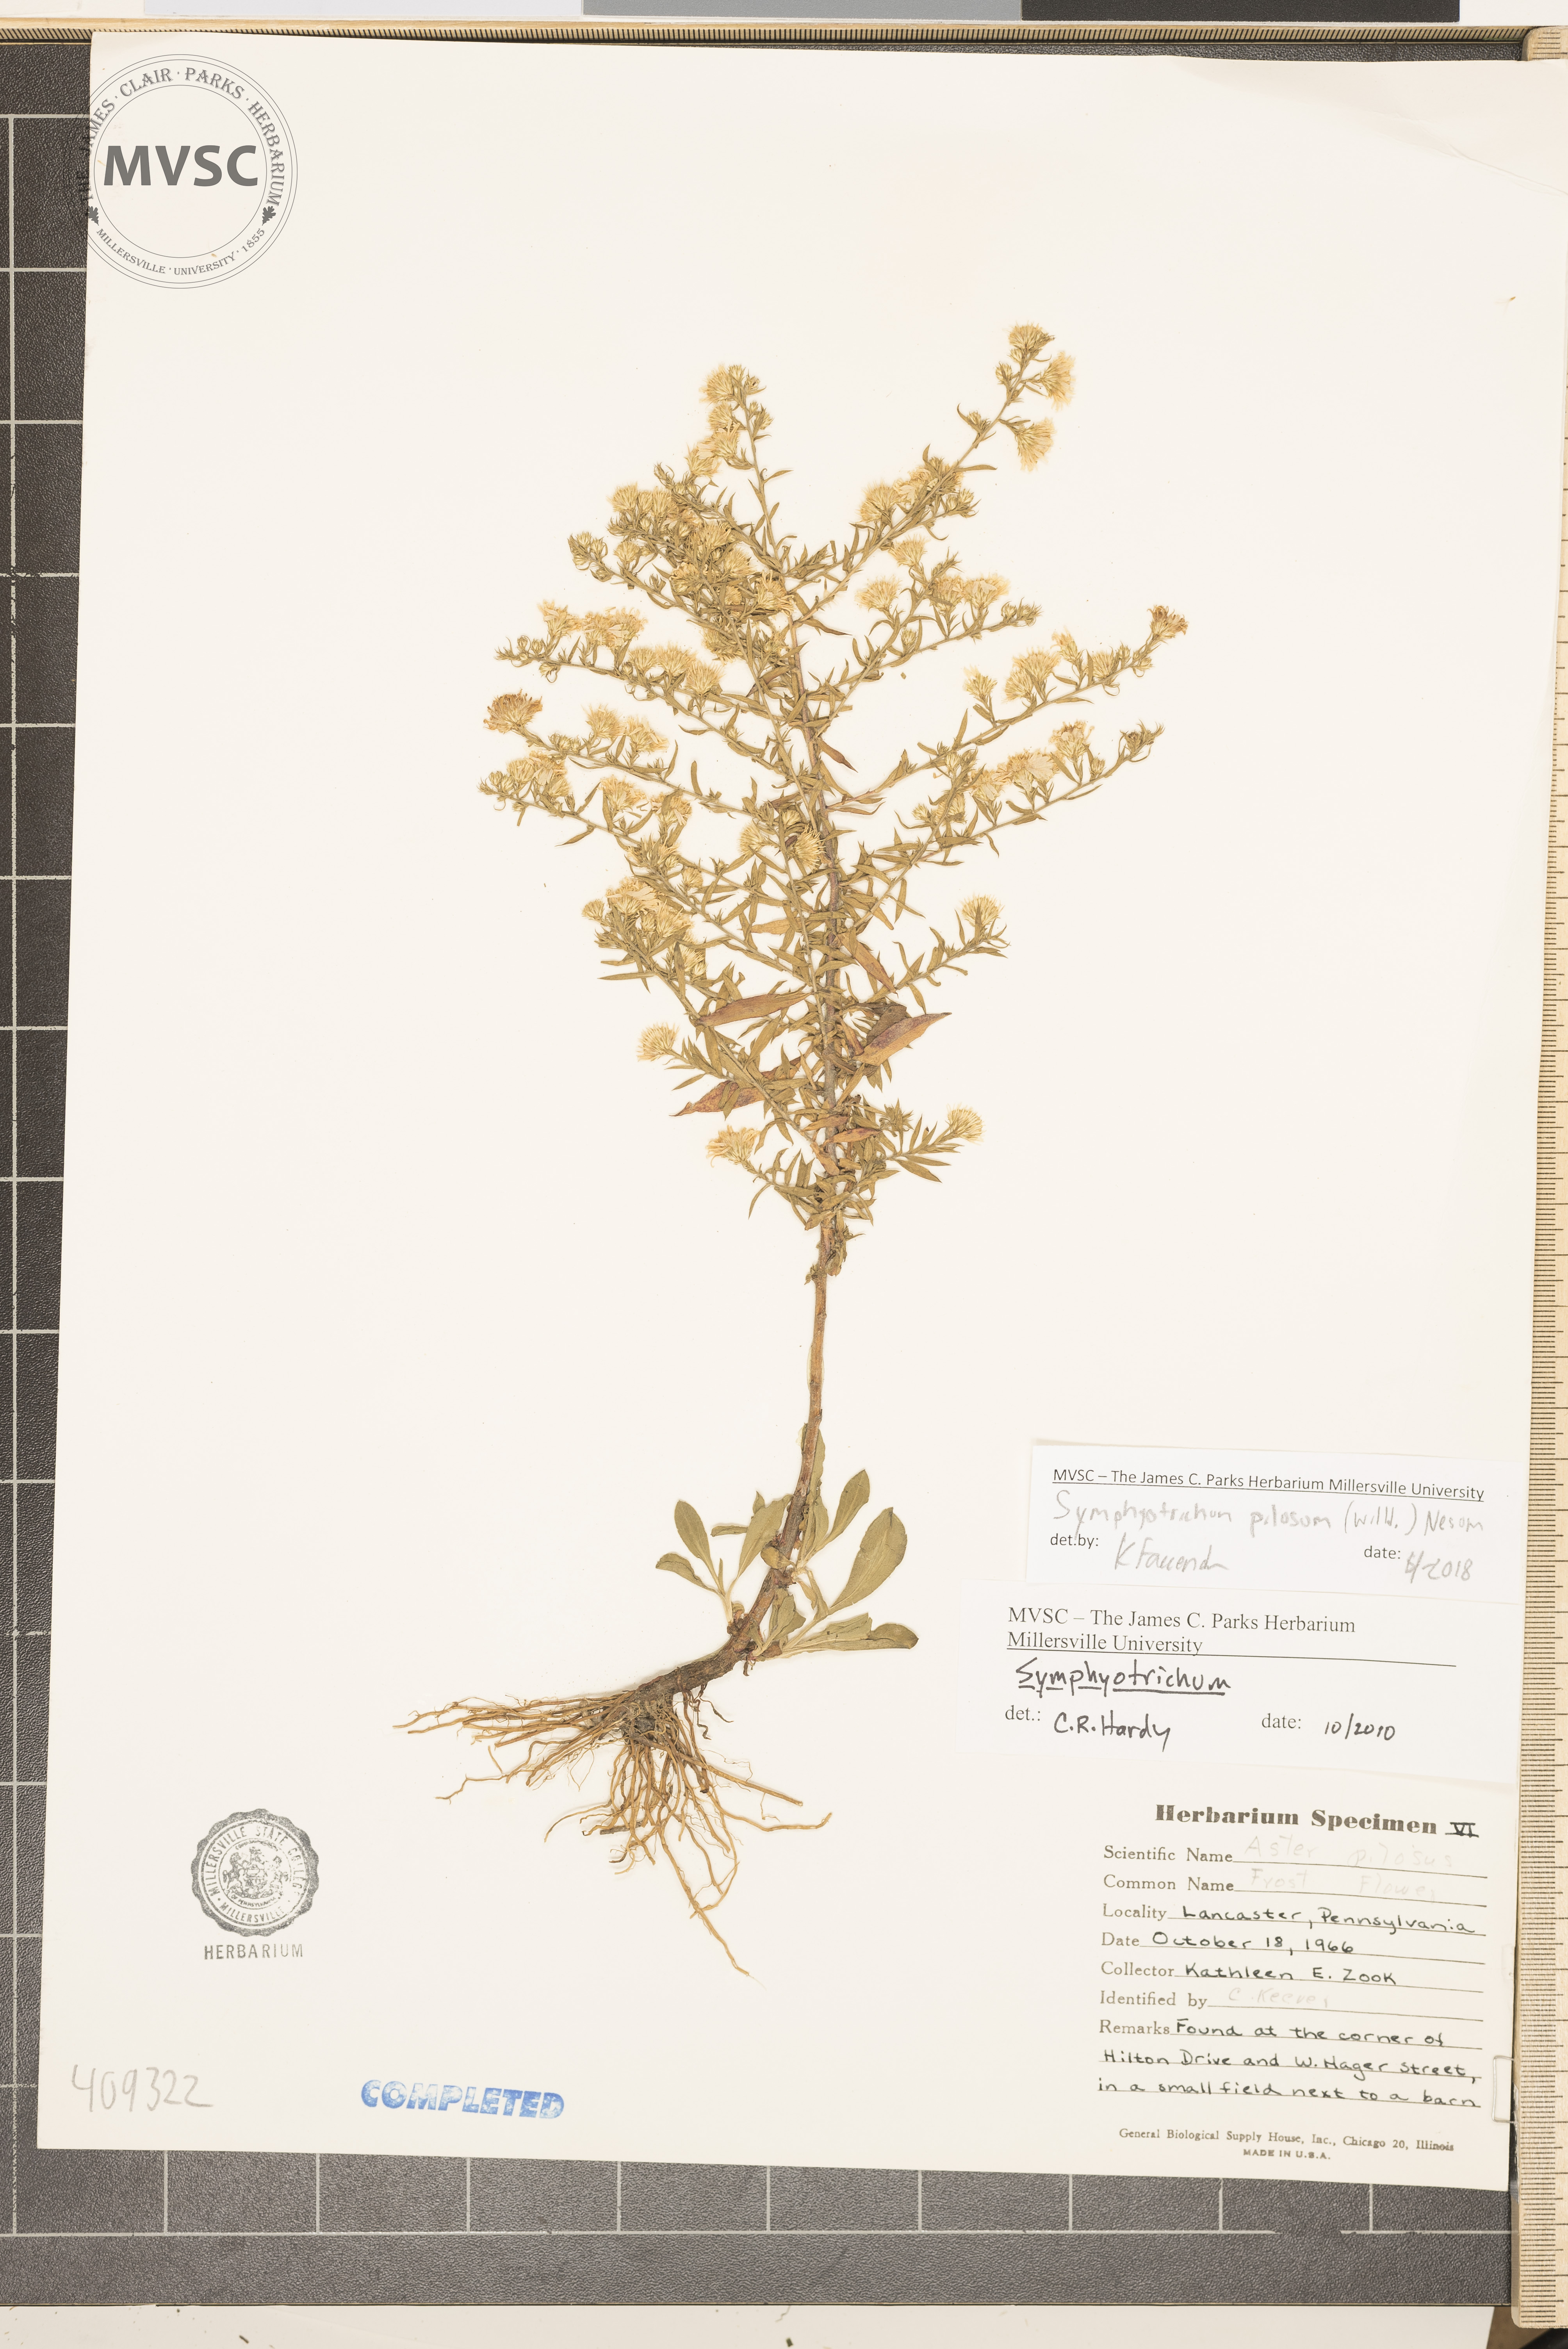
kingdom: Plantae
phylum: Tracheophyta
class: Magnoliopsida
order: Asterales
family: Asteraceae
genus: Symphyotrichum
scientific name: Symphyotrichum pilosum
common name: hairy white oldfield aster
